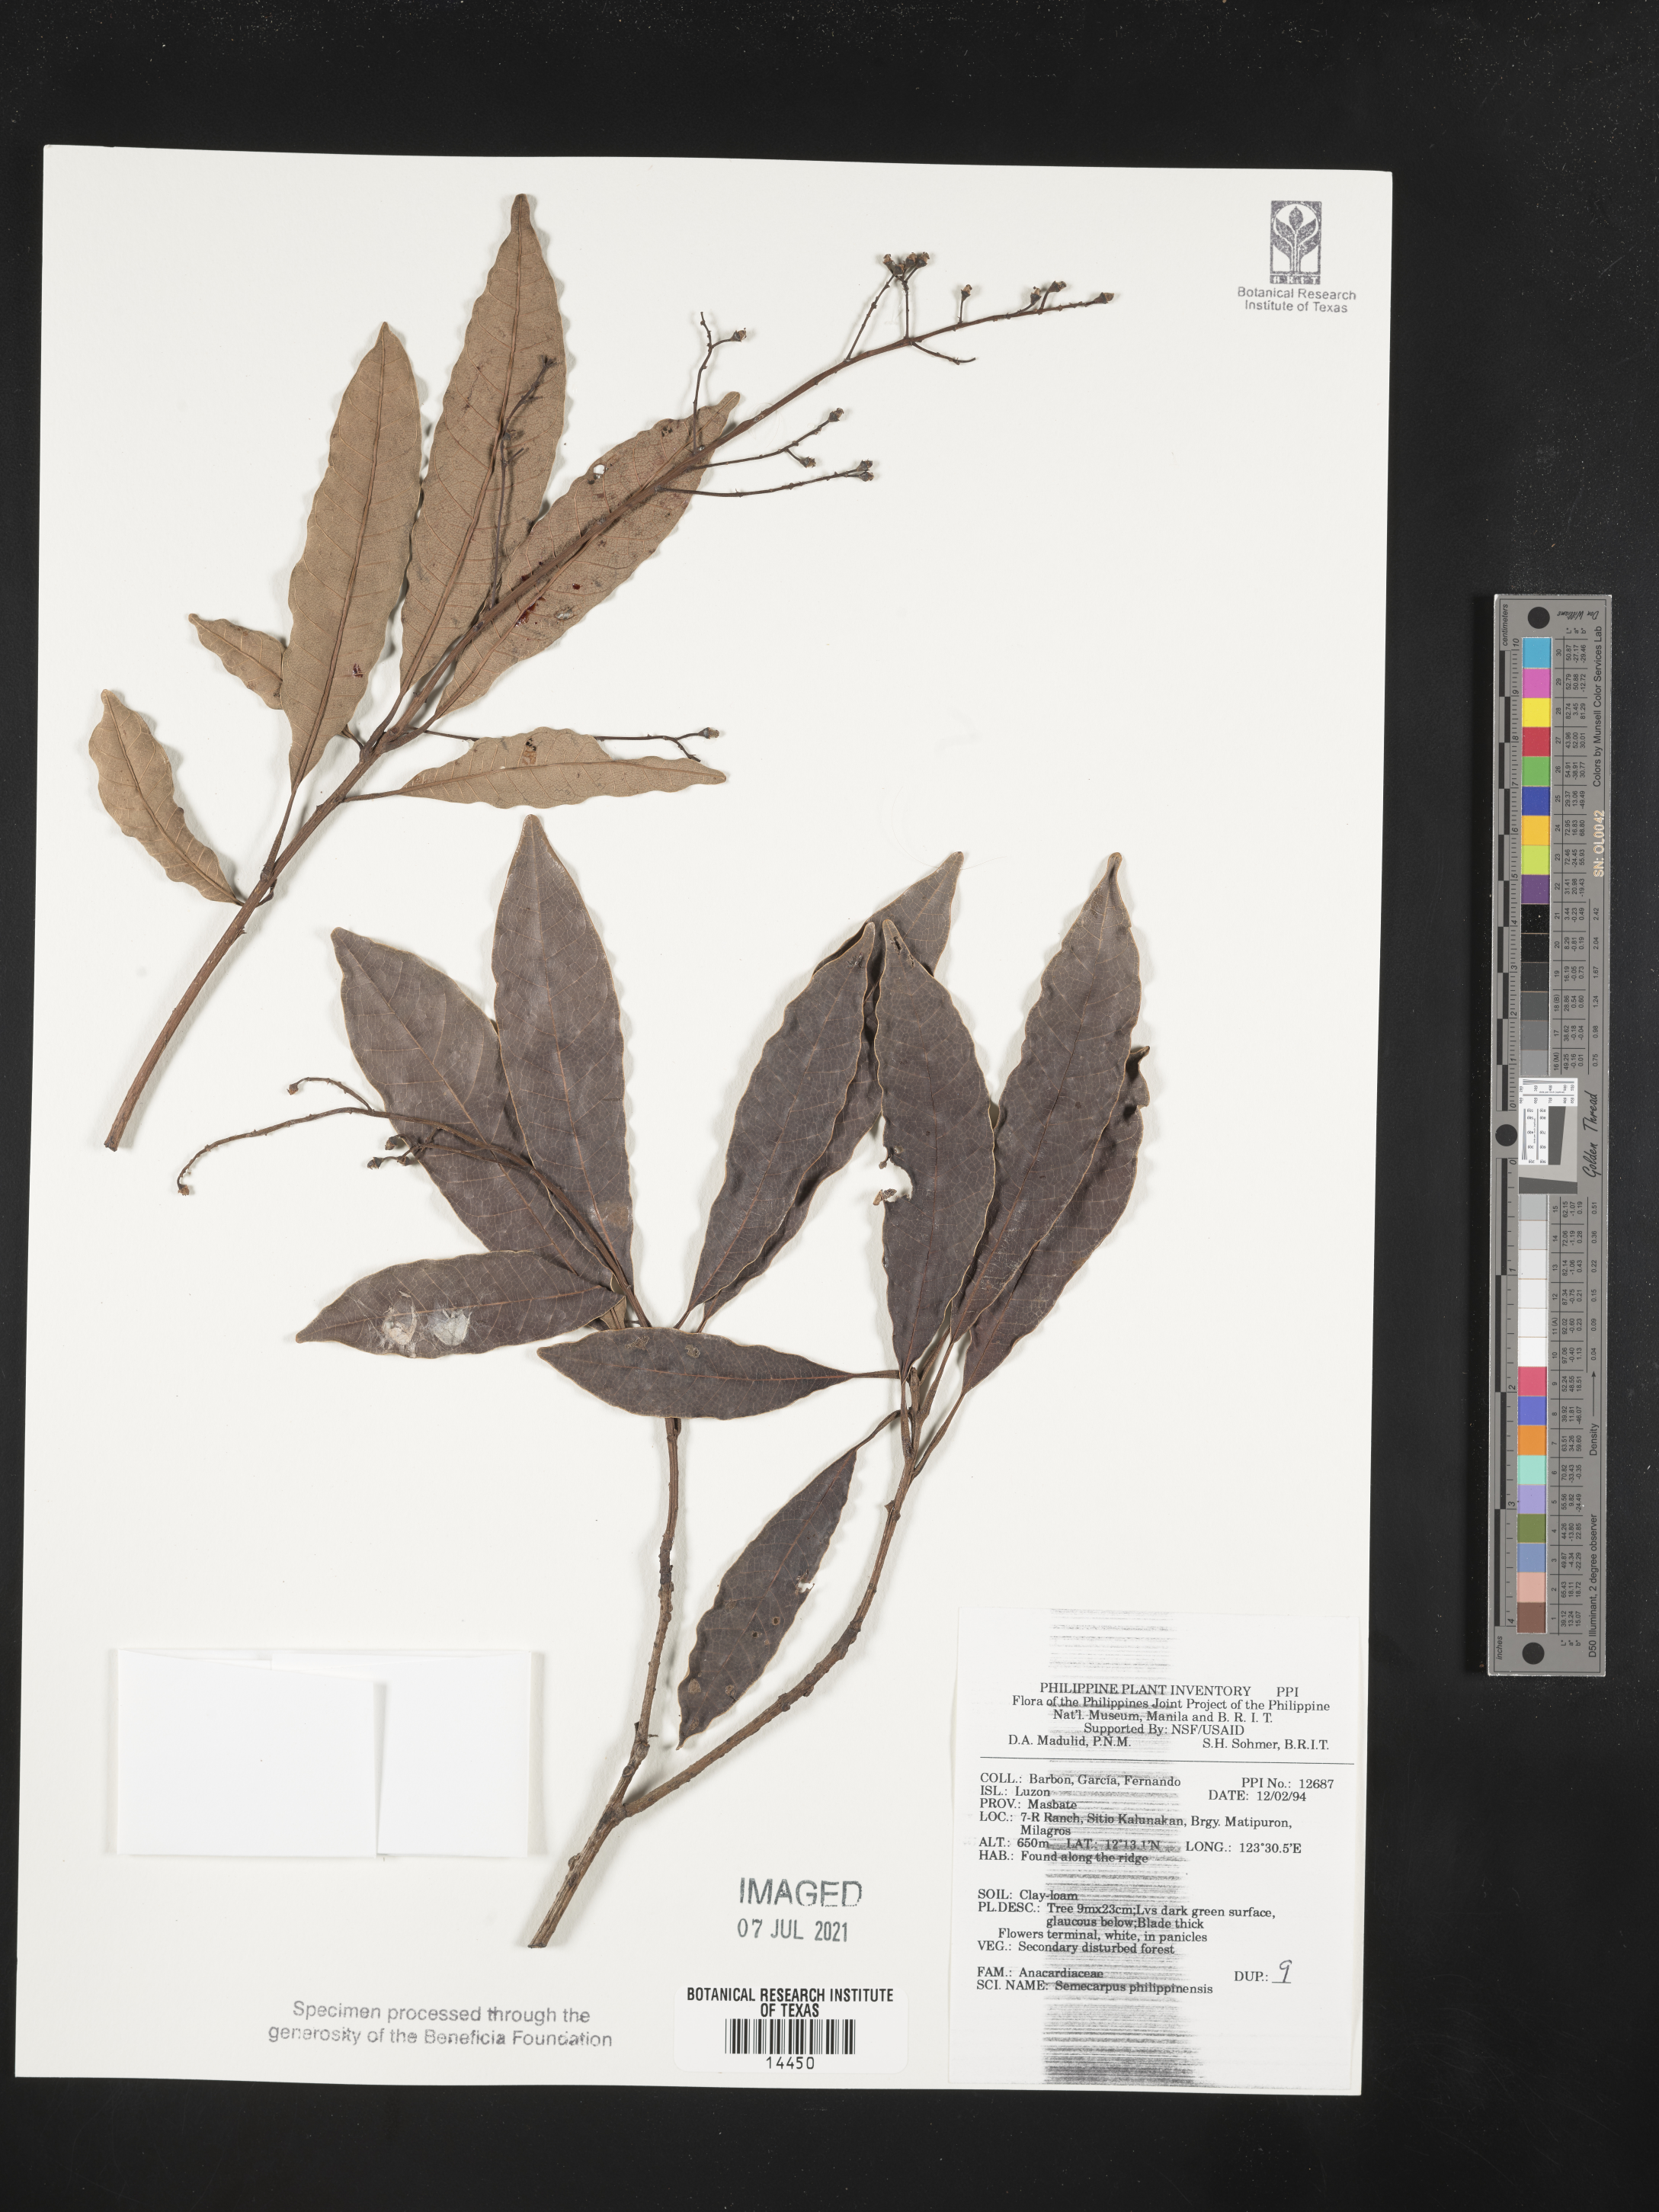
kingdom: Plantae
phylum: Tracheophyta
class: Magnoliopsida
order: Sapindales
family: Anacardiaceae
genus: Semecarpus
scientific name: Semecarpus cuneiformis
